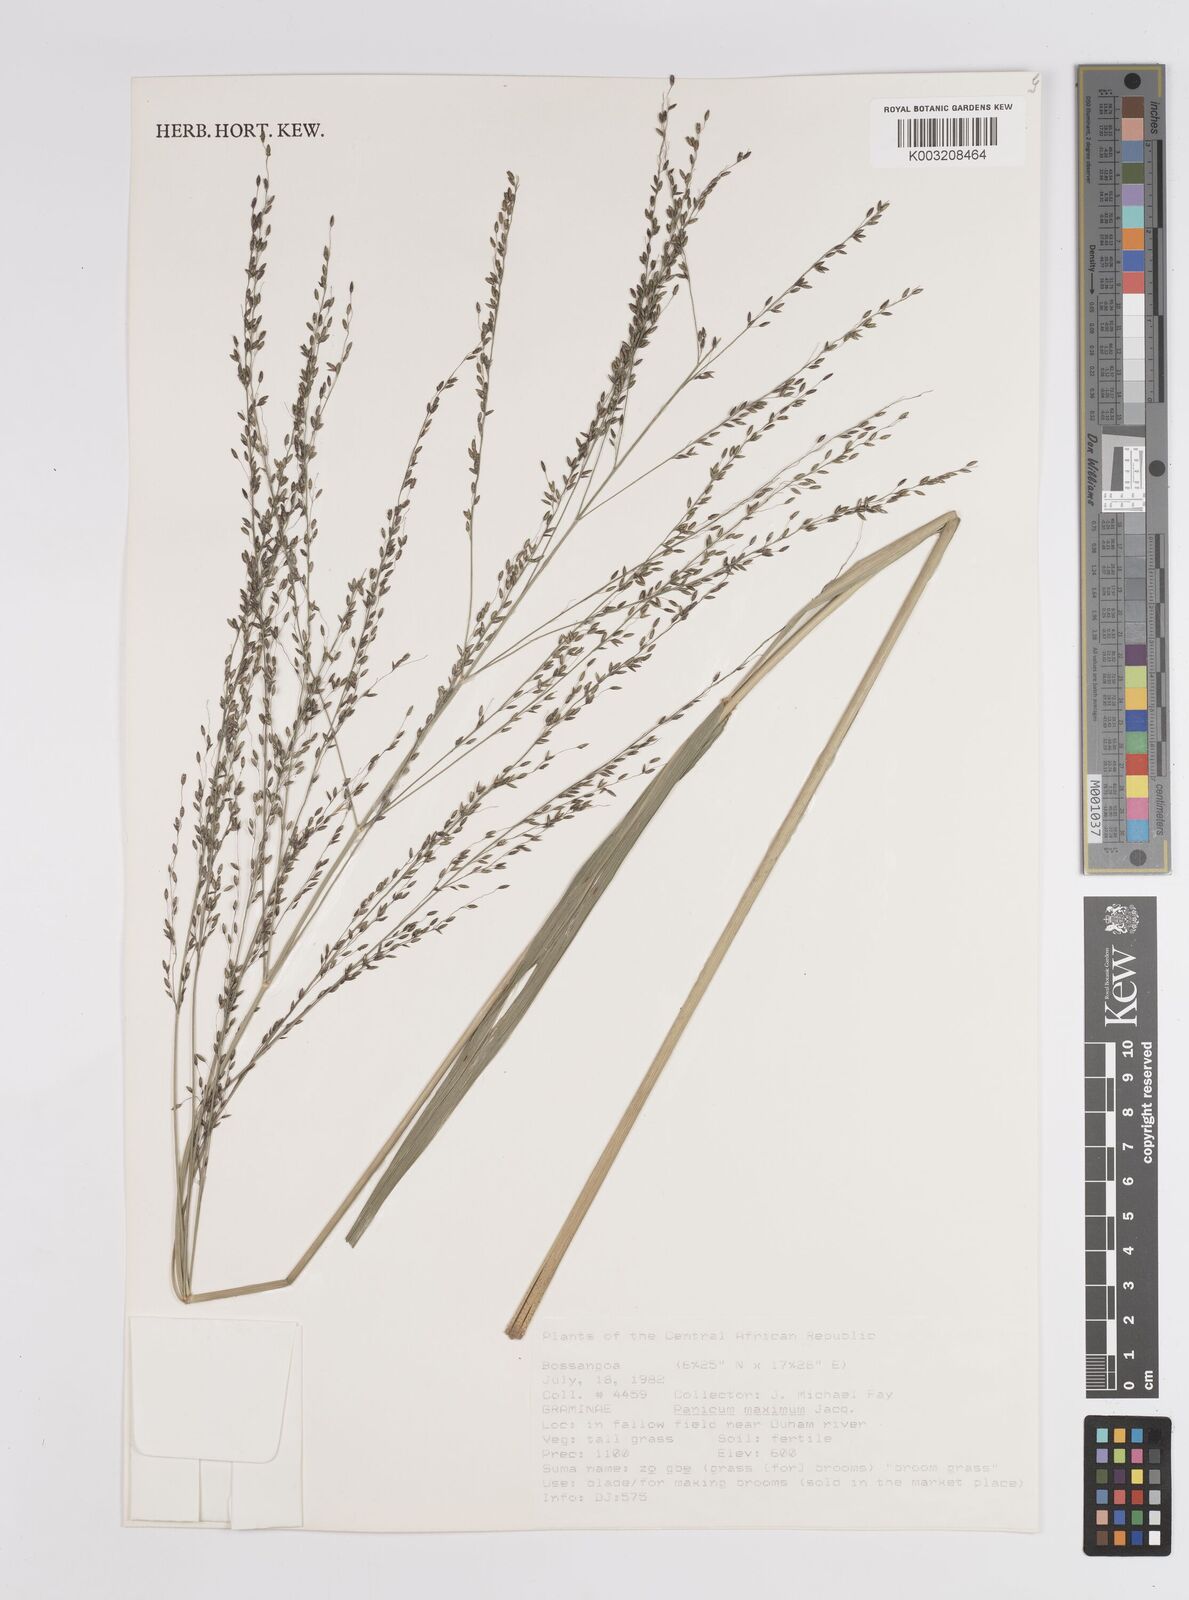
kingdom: Plantae
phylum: Tracheophyta
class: Liliopsida
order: Poales
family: Poaceae
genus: Megathyrsus
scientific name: Megathyrsus maximus
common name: Guineagrass
